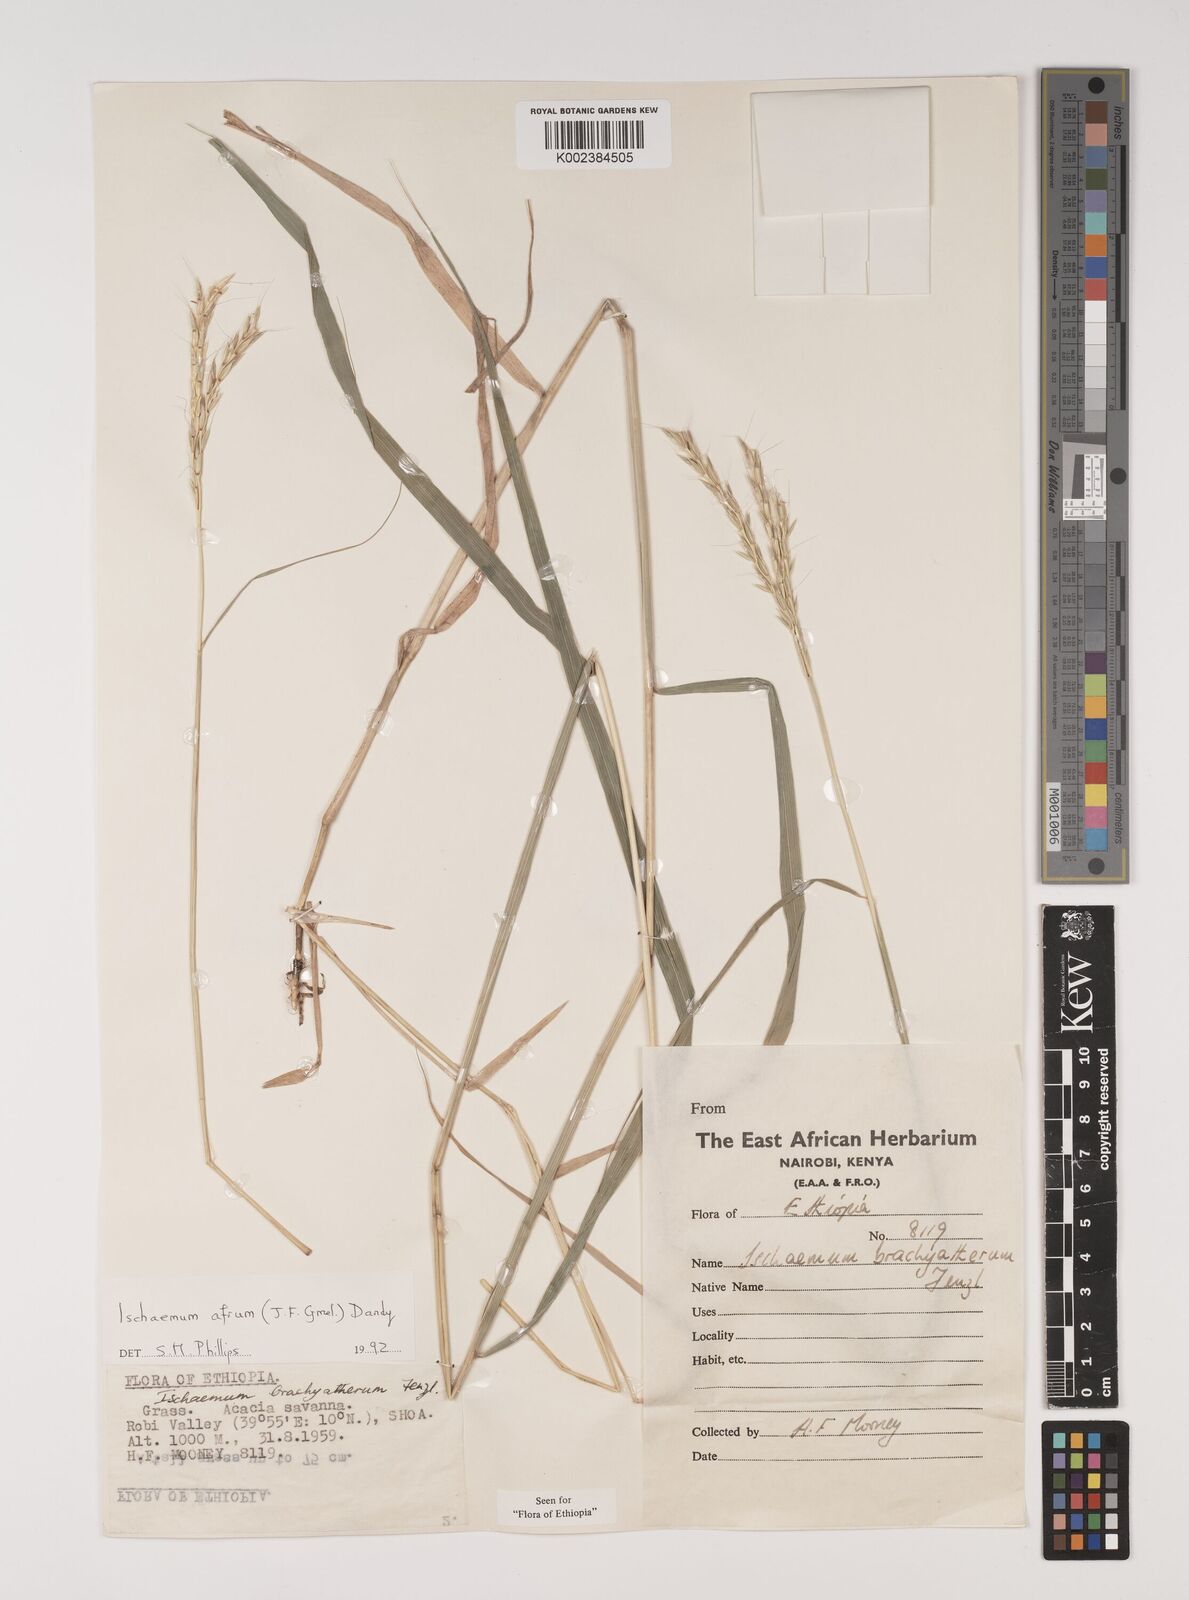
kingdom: Plantae
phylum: Tracheophyta
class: Liliopsida
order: Poales
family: Poaceae
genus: Ischaemum
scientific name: Ischaemum afrum
